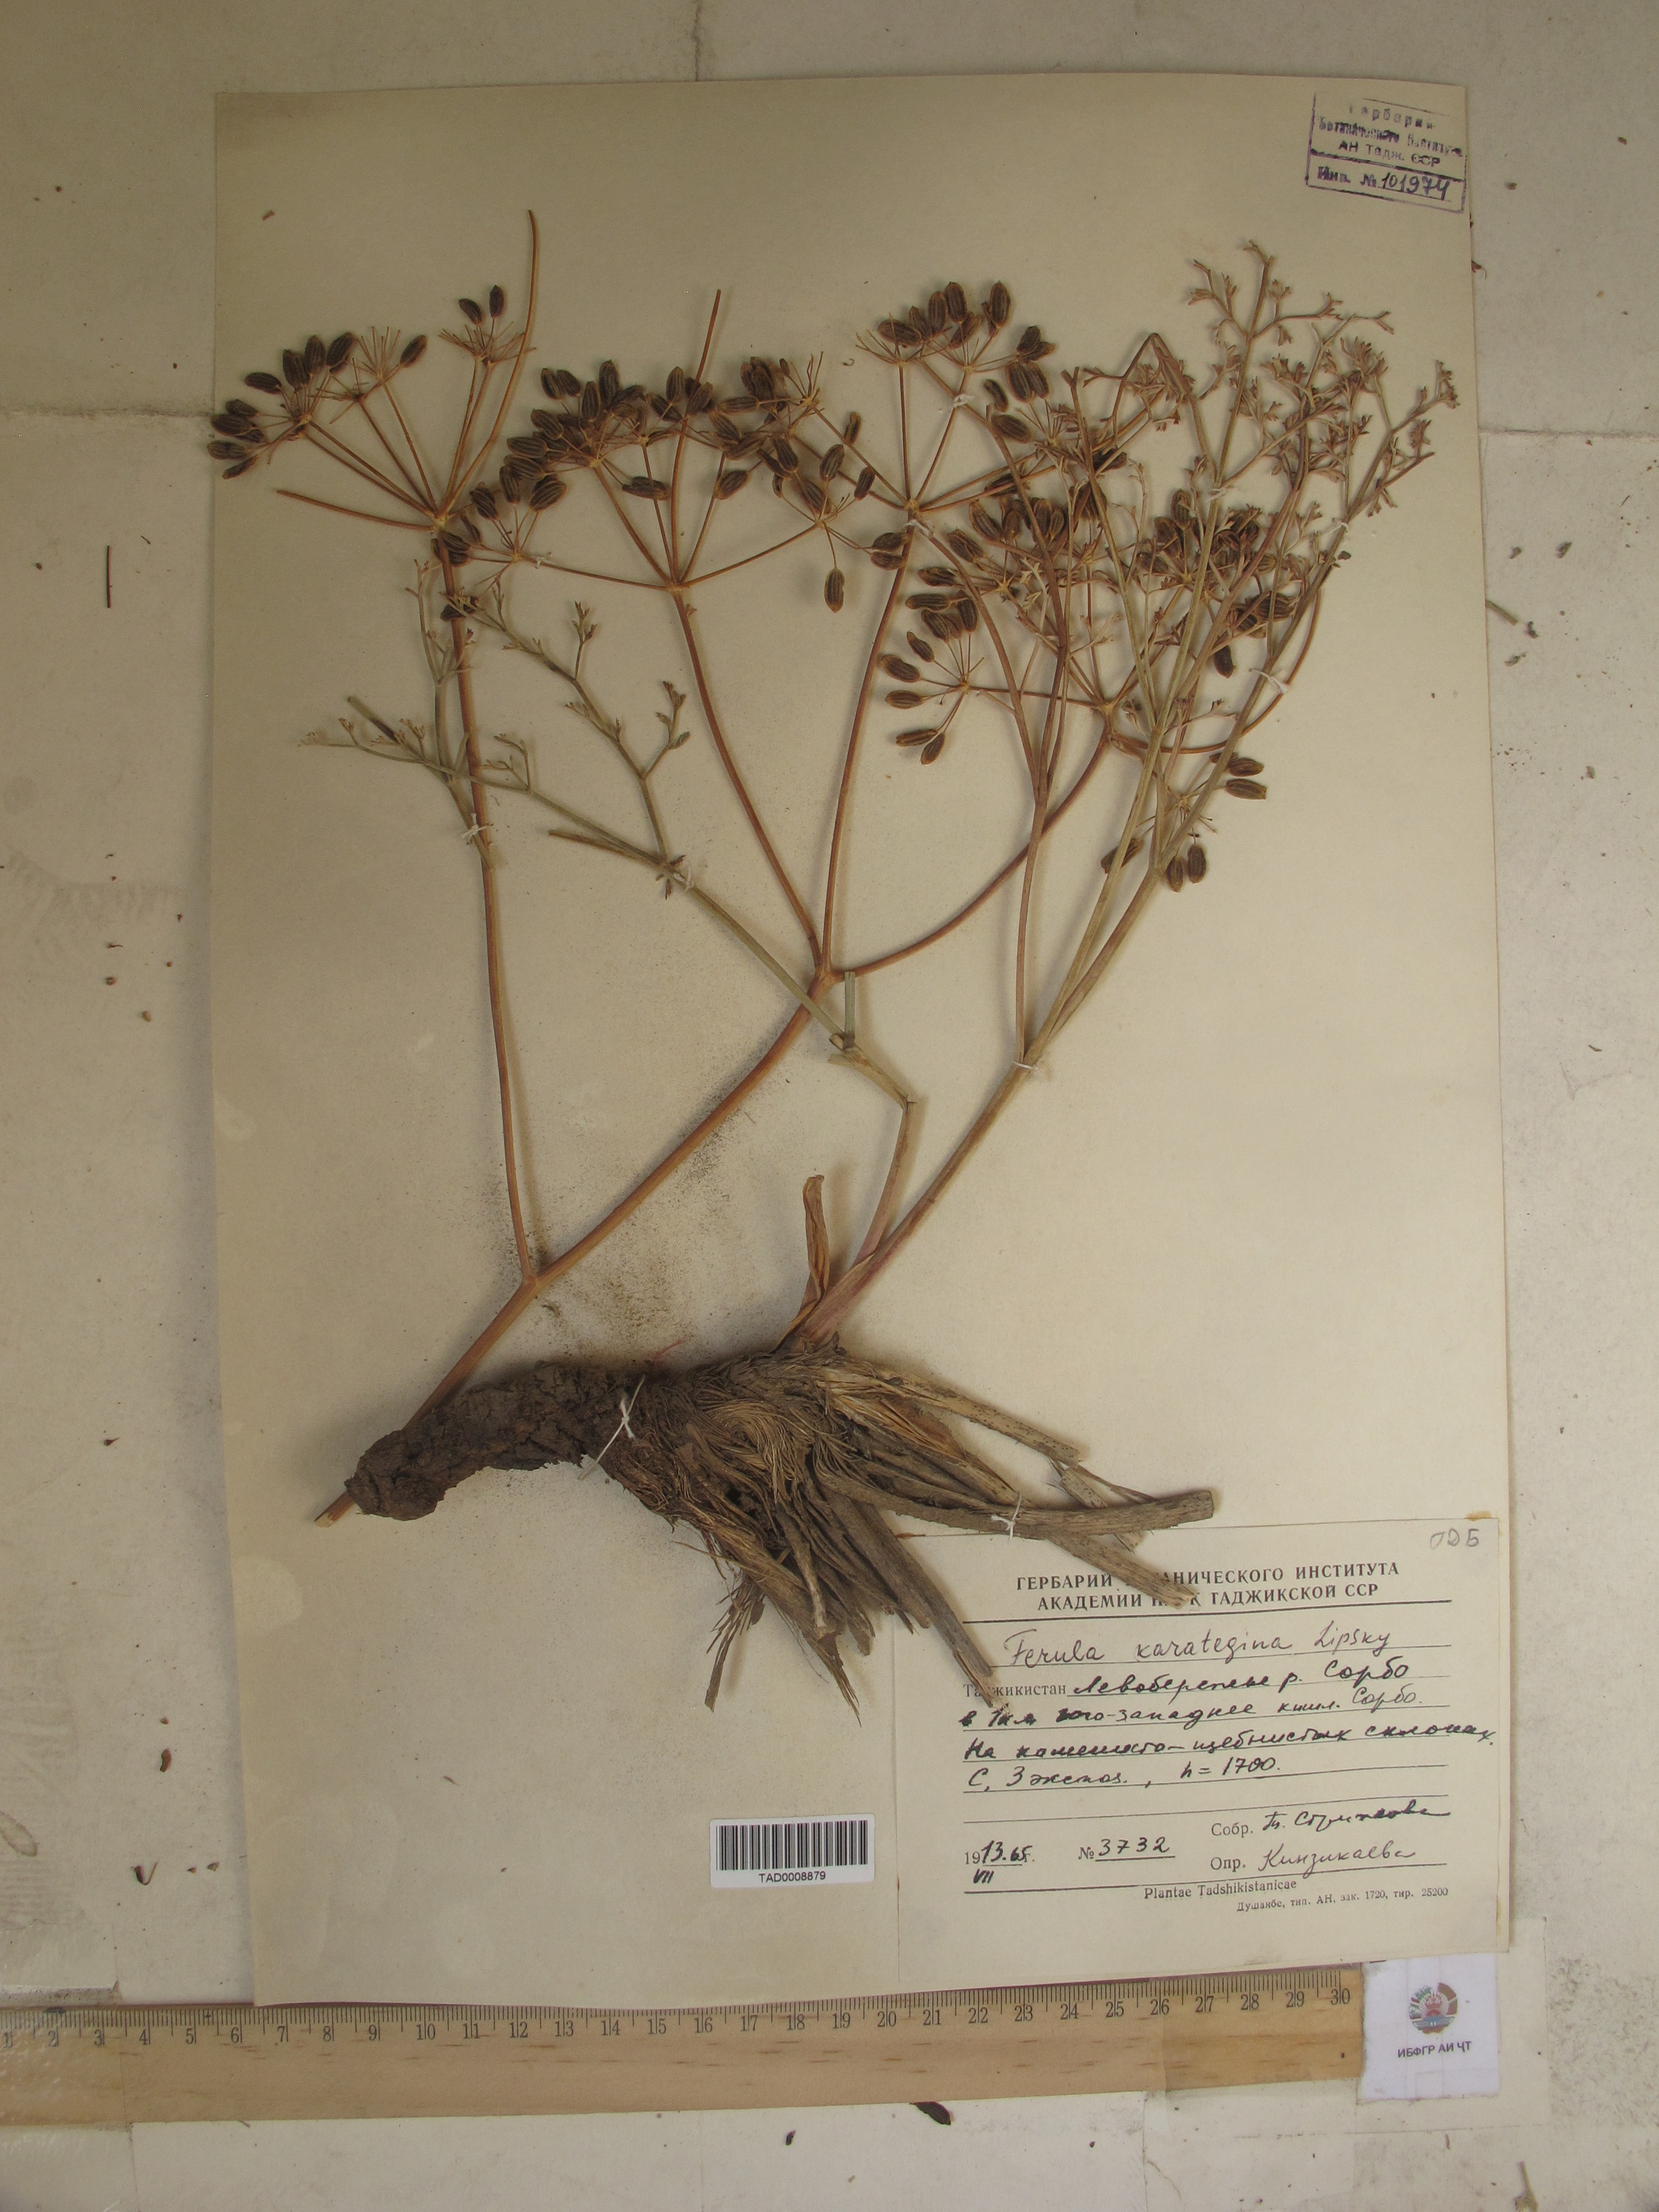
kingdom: Plantae
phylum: Tracheophyta
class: Magnoliopsida
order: Apiales
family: Apiaceae
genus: Ferula
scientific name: Ferula karategina
